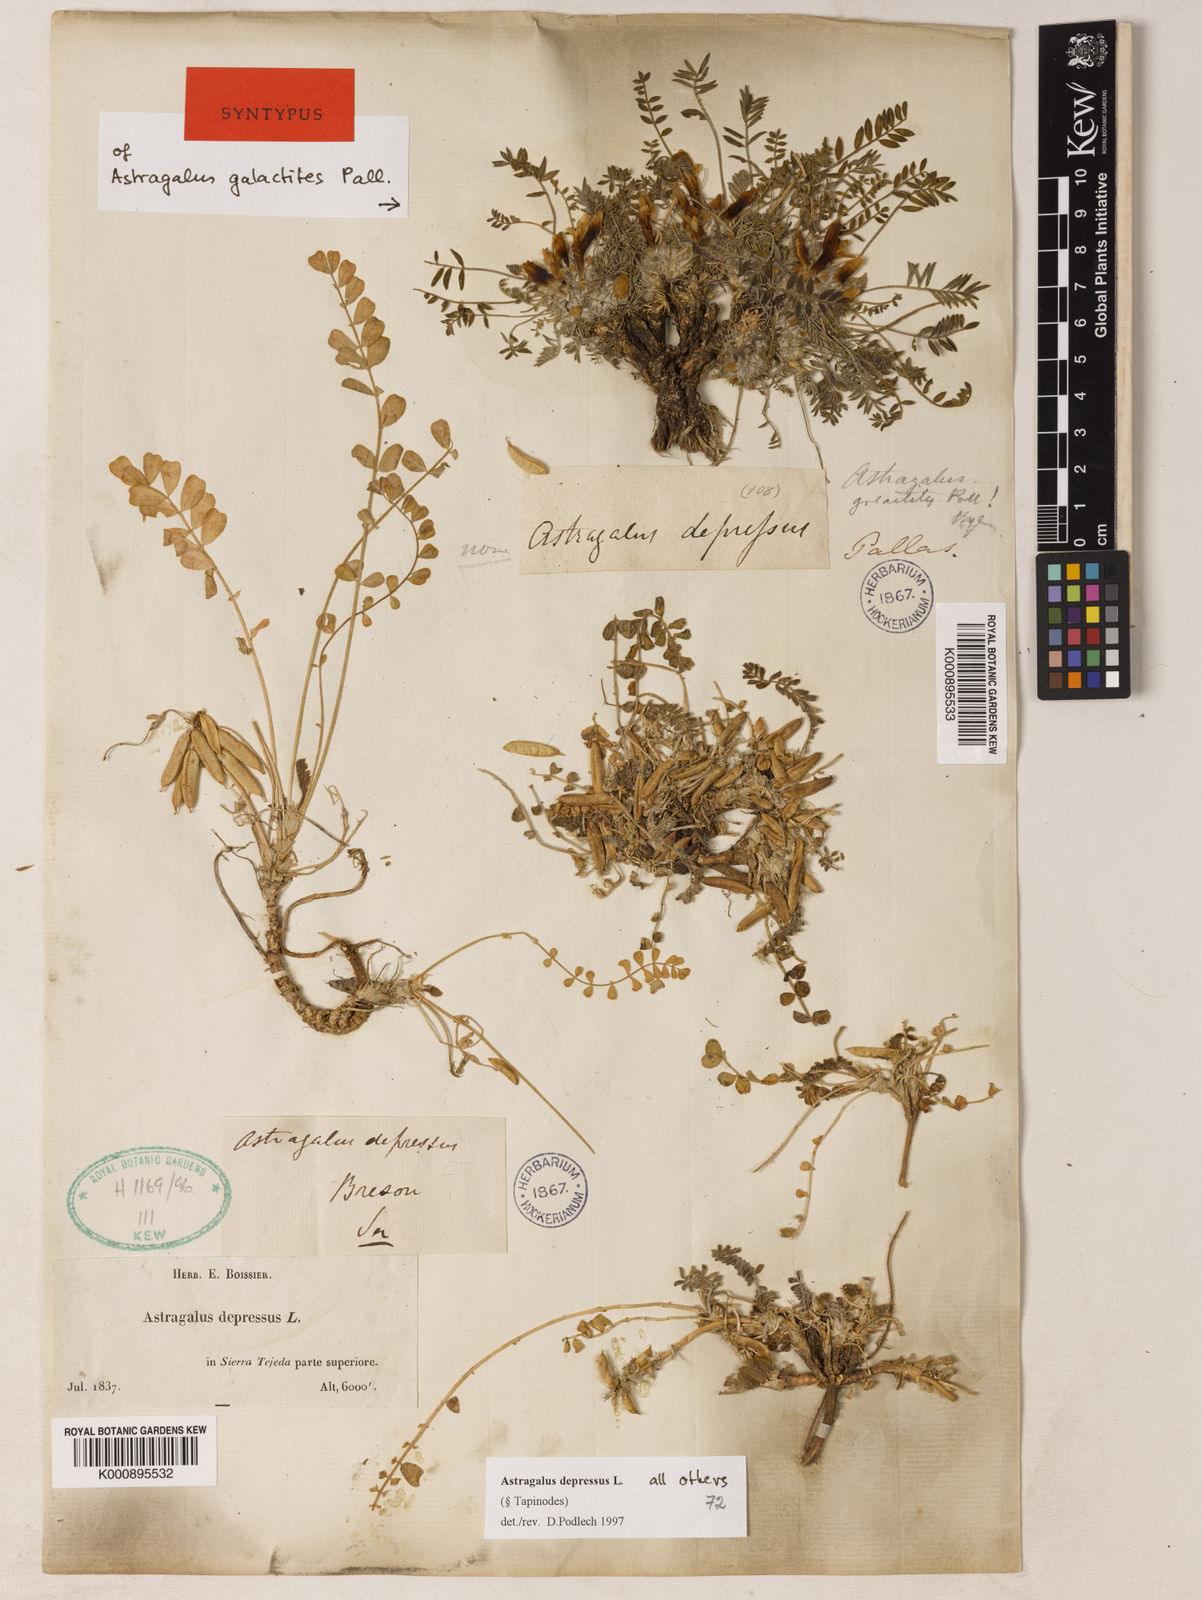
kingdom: Plantae
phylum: Tracheophyta
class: Magnoliopsida
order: Fabales
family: Fabaceae
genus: Astragalus
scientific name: Astragalus
